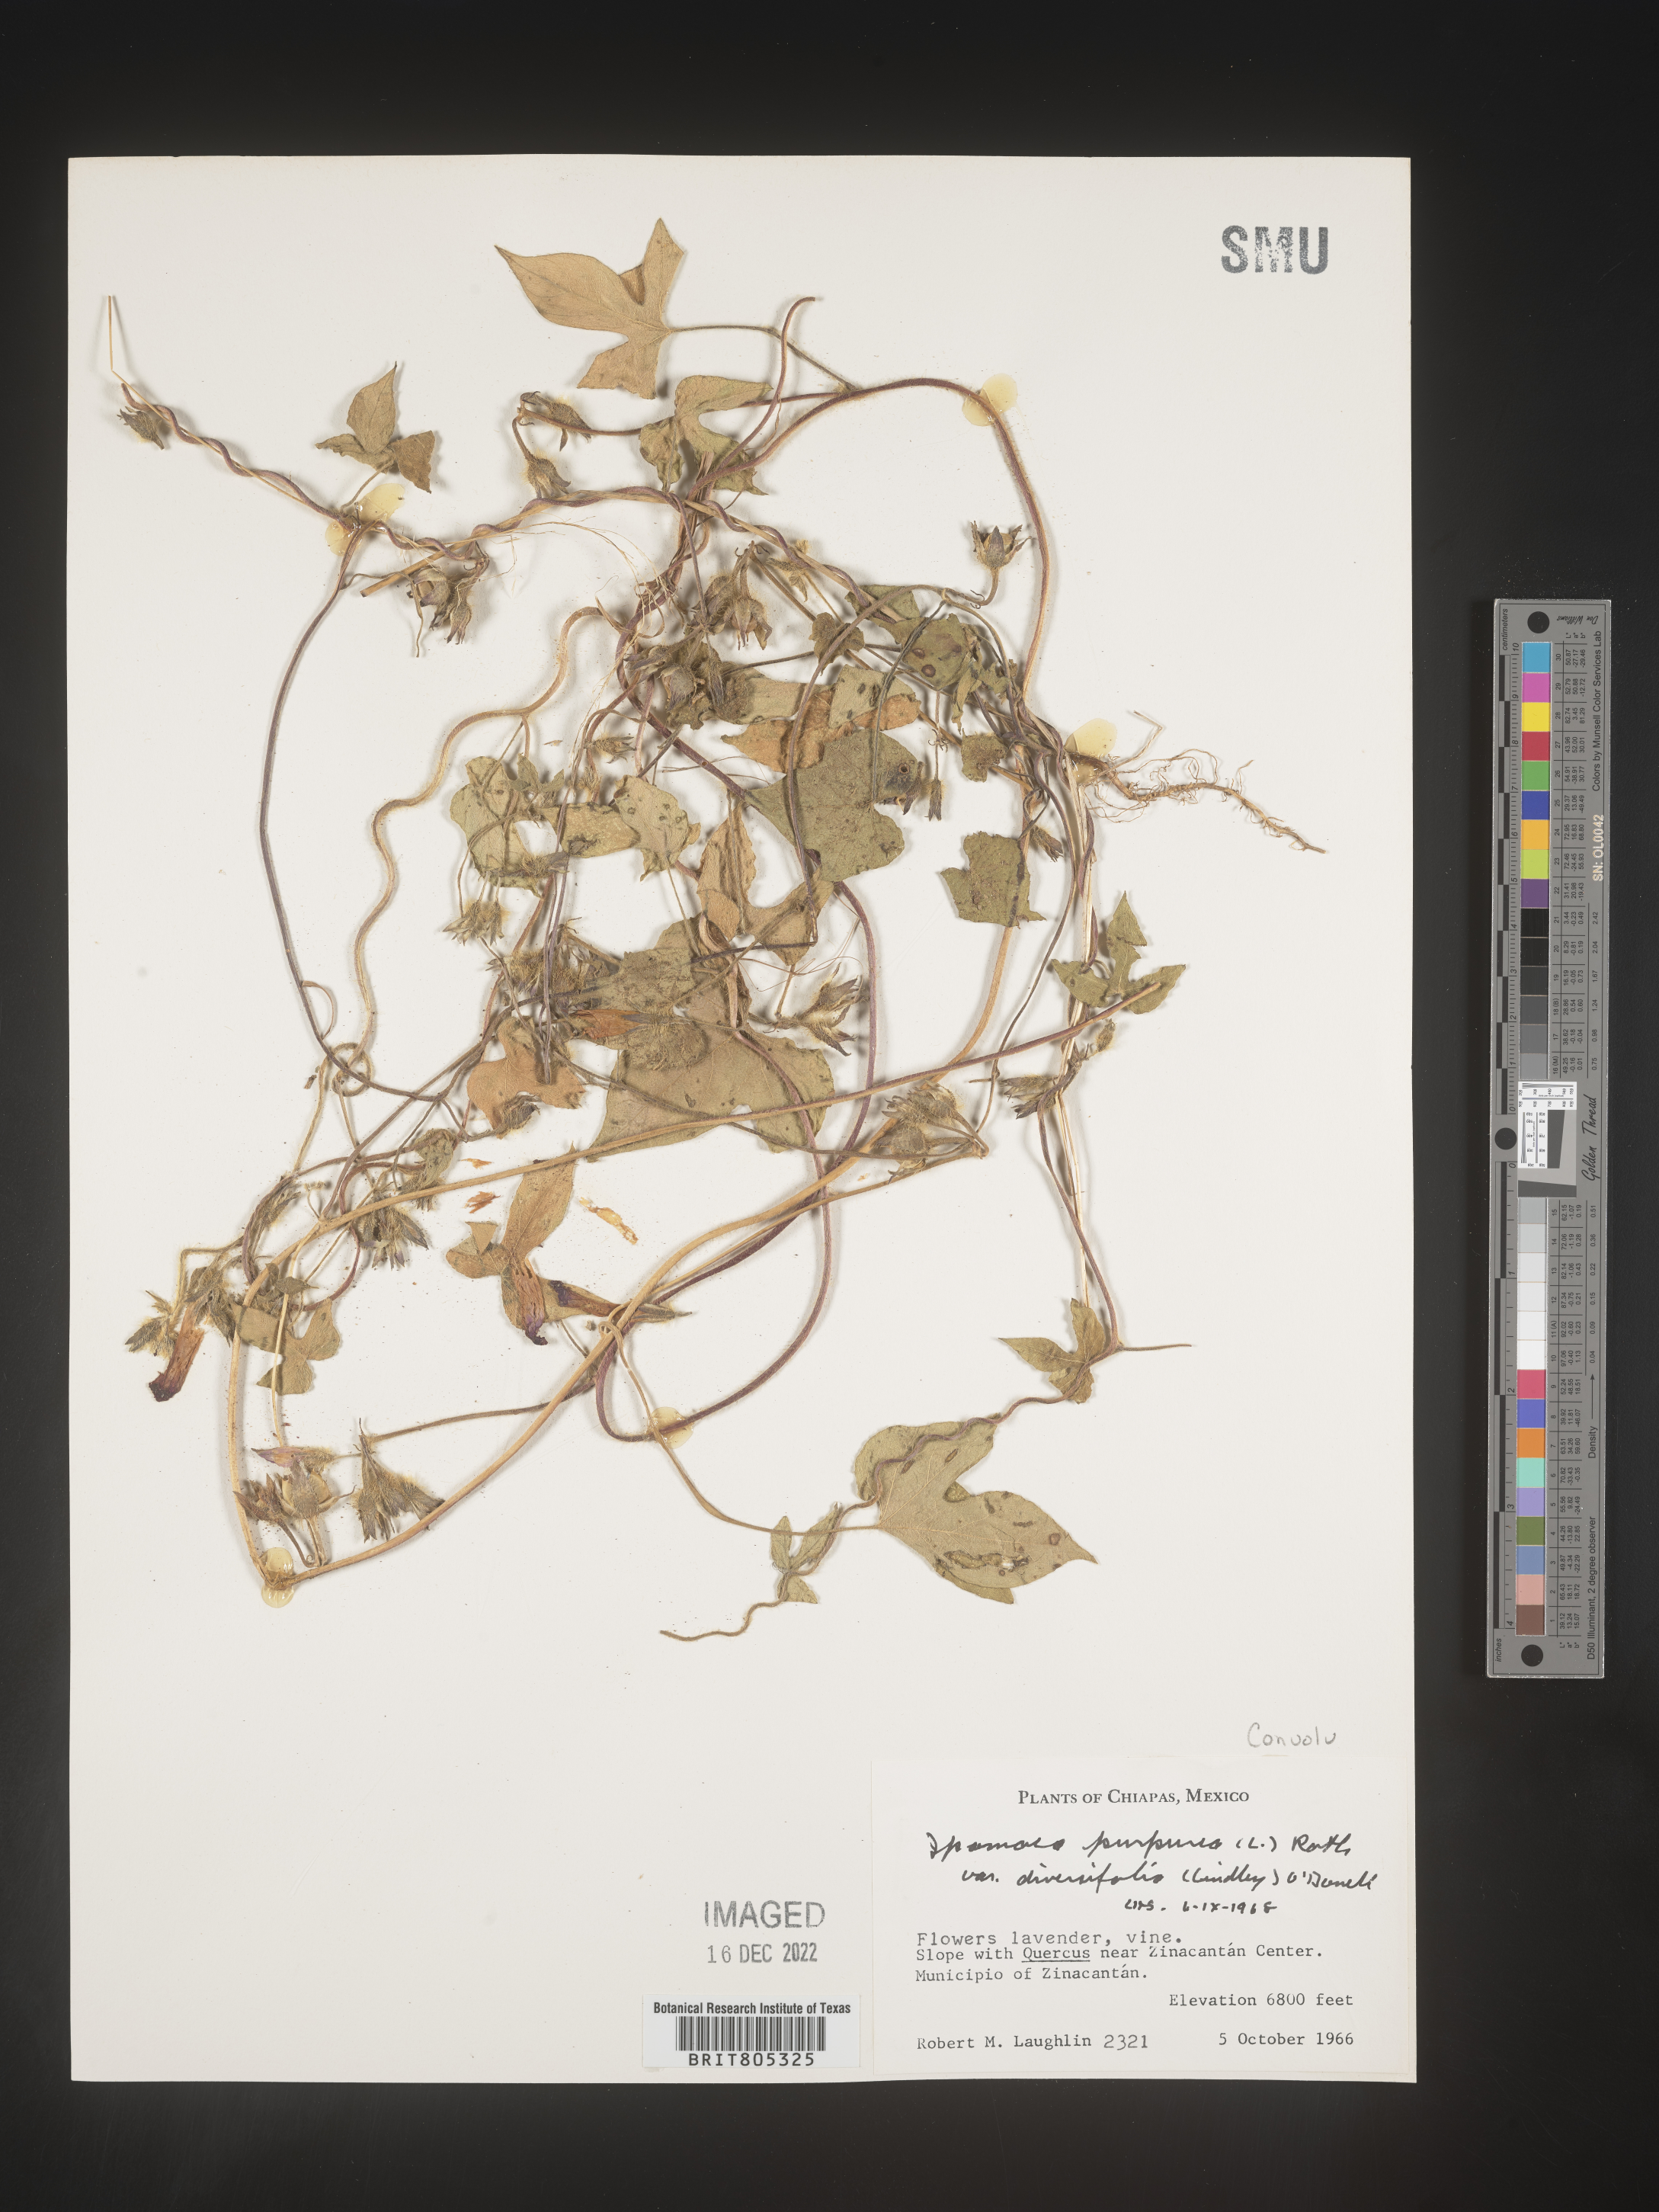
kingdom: Plantae
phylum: Tracheophyta
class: Magnoliopsida
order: Solanales
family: Convolvulaceae
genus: Ipomoea
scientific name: Ipomoea
